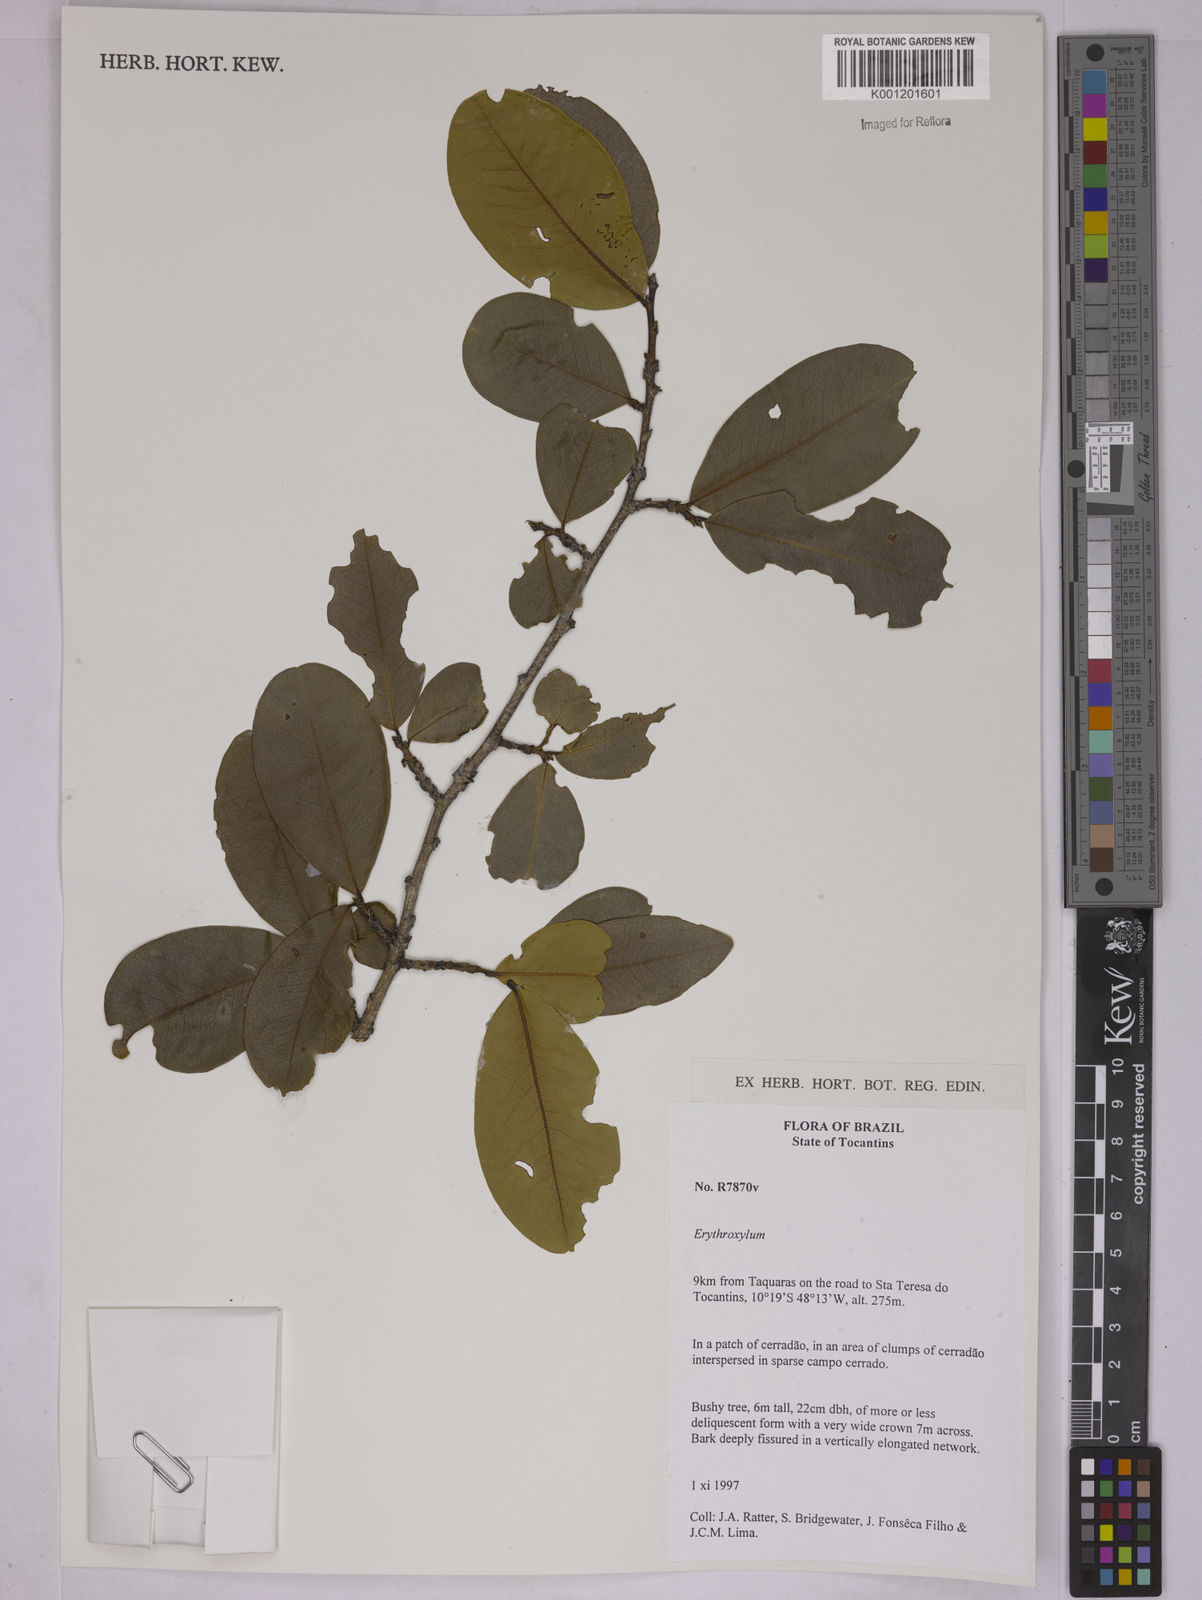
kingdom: Plantae
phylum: Tracheophyta
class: Magnoliopsida
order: Malpighiales
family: Erythroxylaceae
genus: Erythroxylum
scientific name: Erythroxylum
